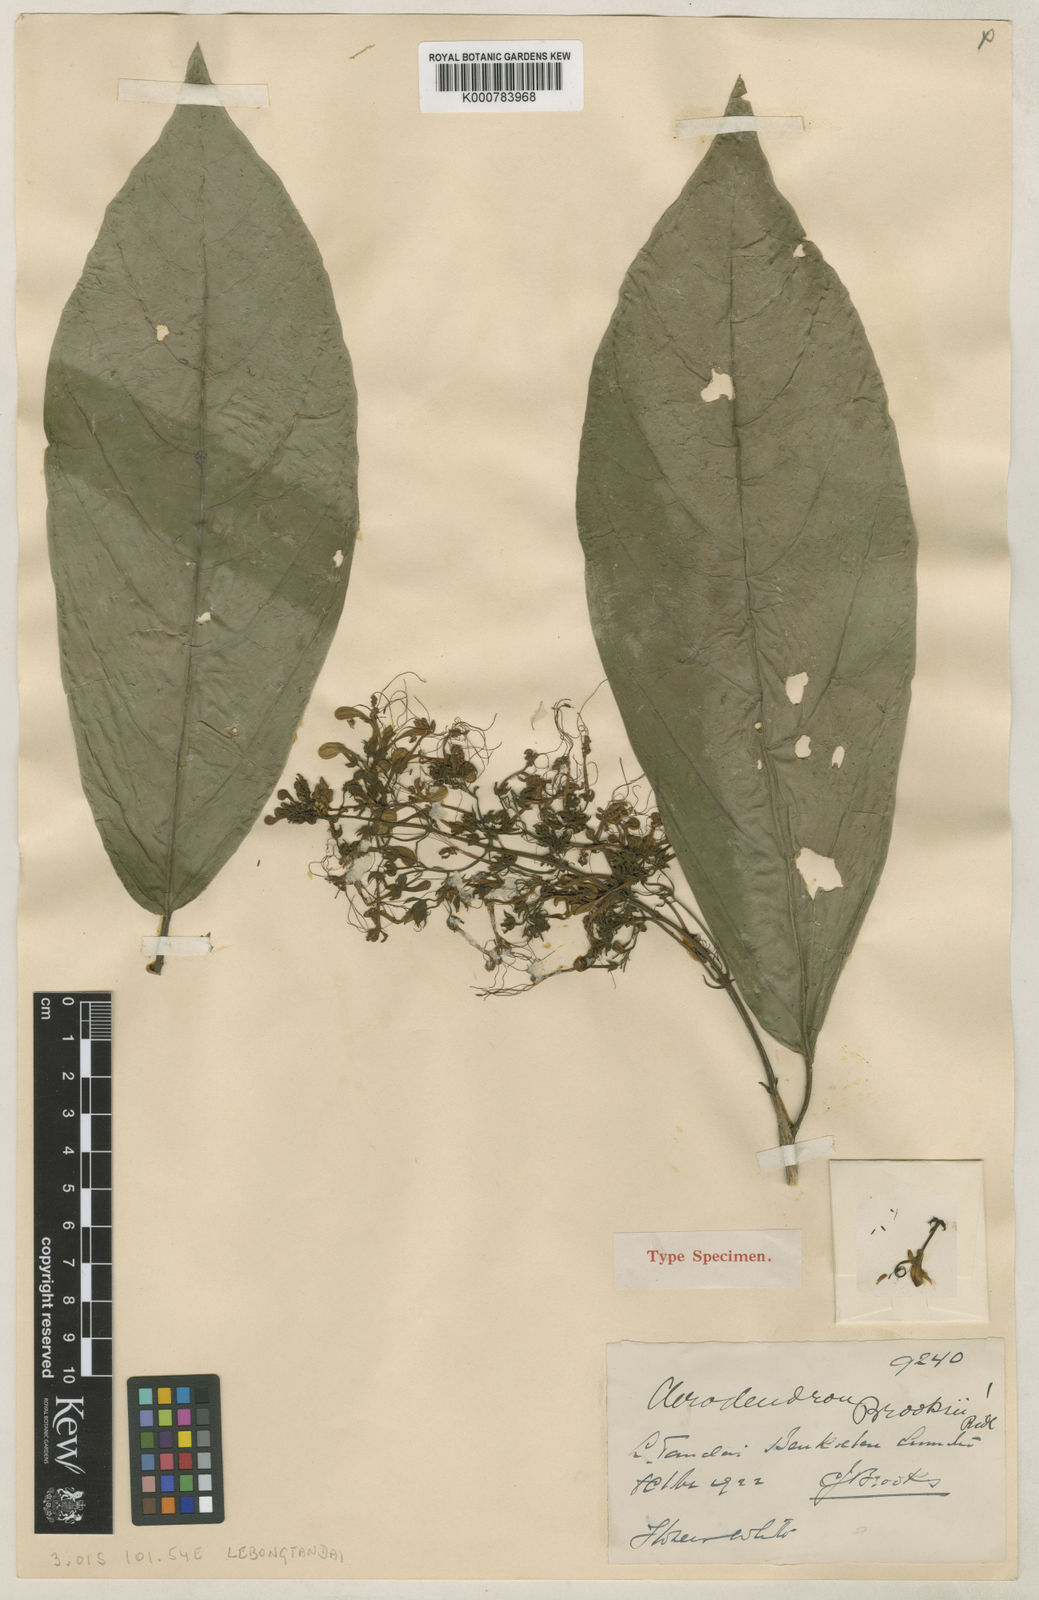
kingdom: Plantae
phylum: Tracheophyta
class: Magnoliopsida
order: Lamiales
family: Lamiaceae
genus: Clerodendrum
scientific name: Clerodendrum phyllomega
